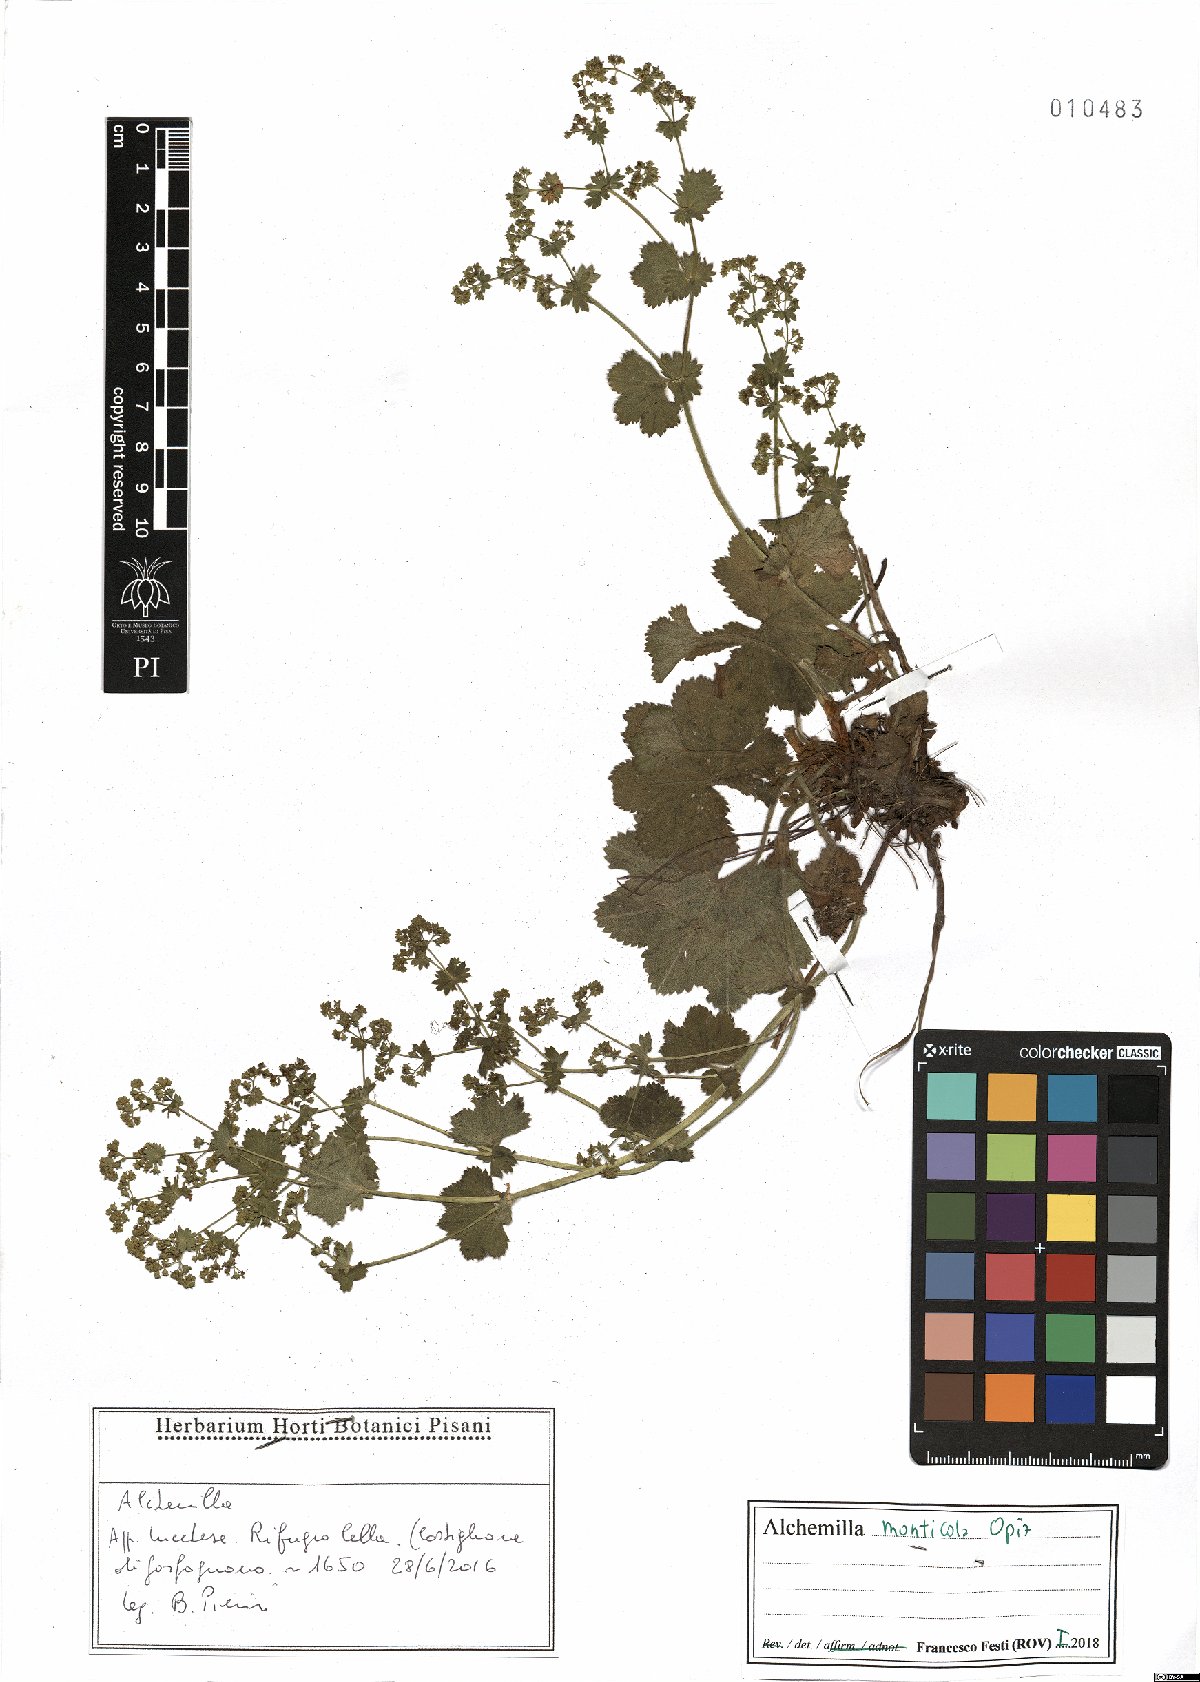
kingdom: Plantae
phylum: Tracheophyta
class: Magnoliopsida
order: Rosales
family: Rosaceae
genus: Alchemilla
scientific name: Alchemilla monticola
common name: Hairy lady's mantle
